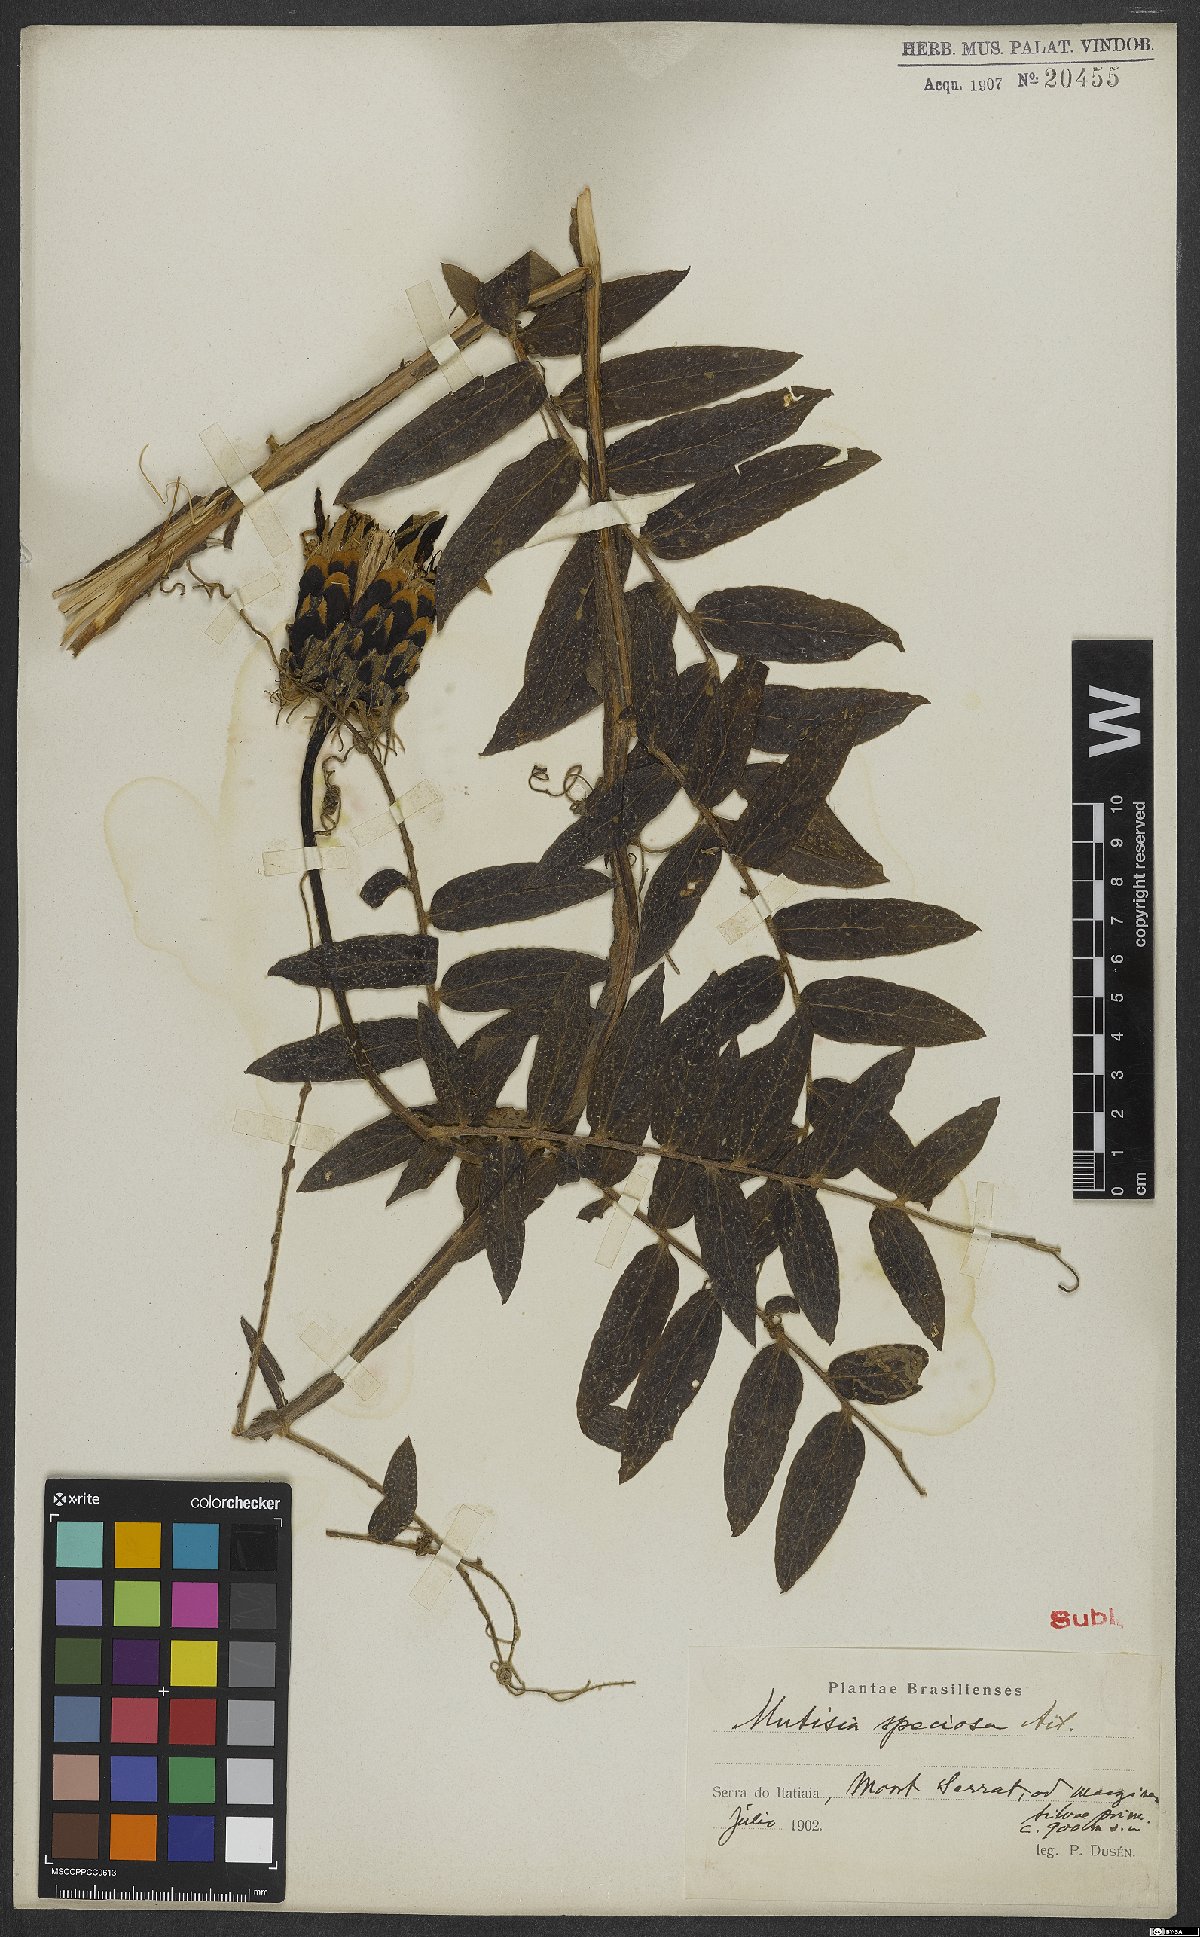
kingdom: Plantae
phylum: Tracheophyta
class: Magnoliopsida
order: Asterales
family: Asteraceae
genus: Mutisia
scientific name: Mutisia speciosa
